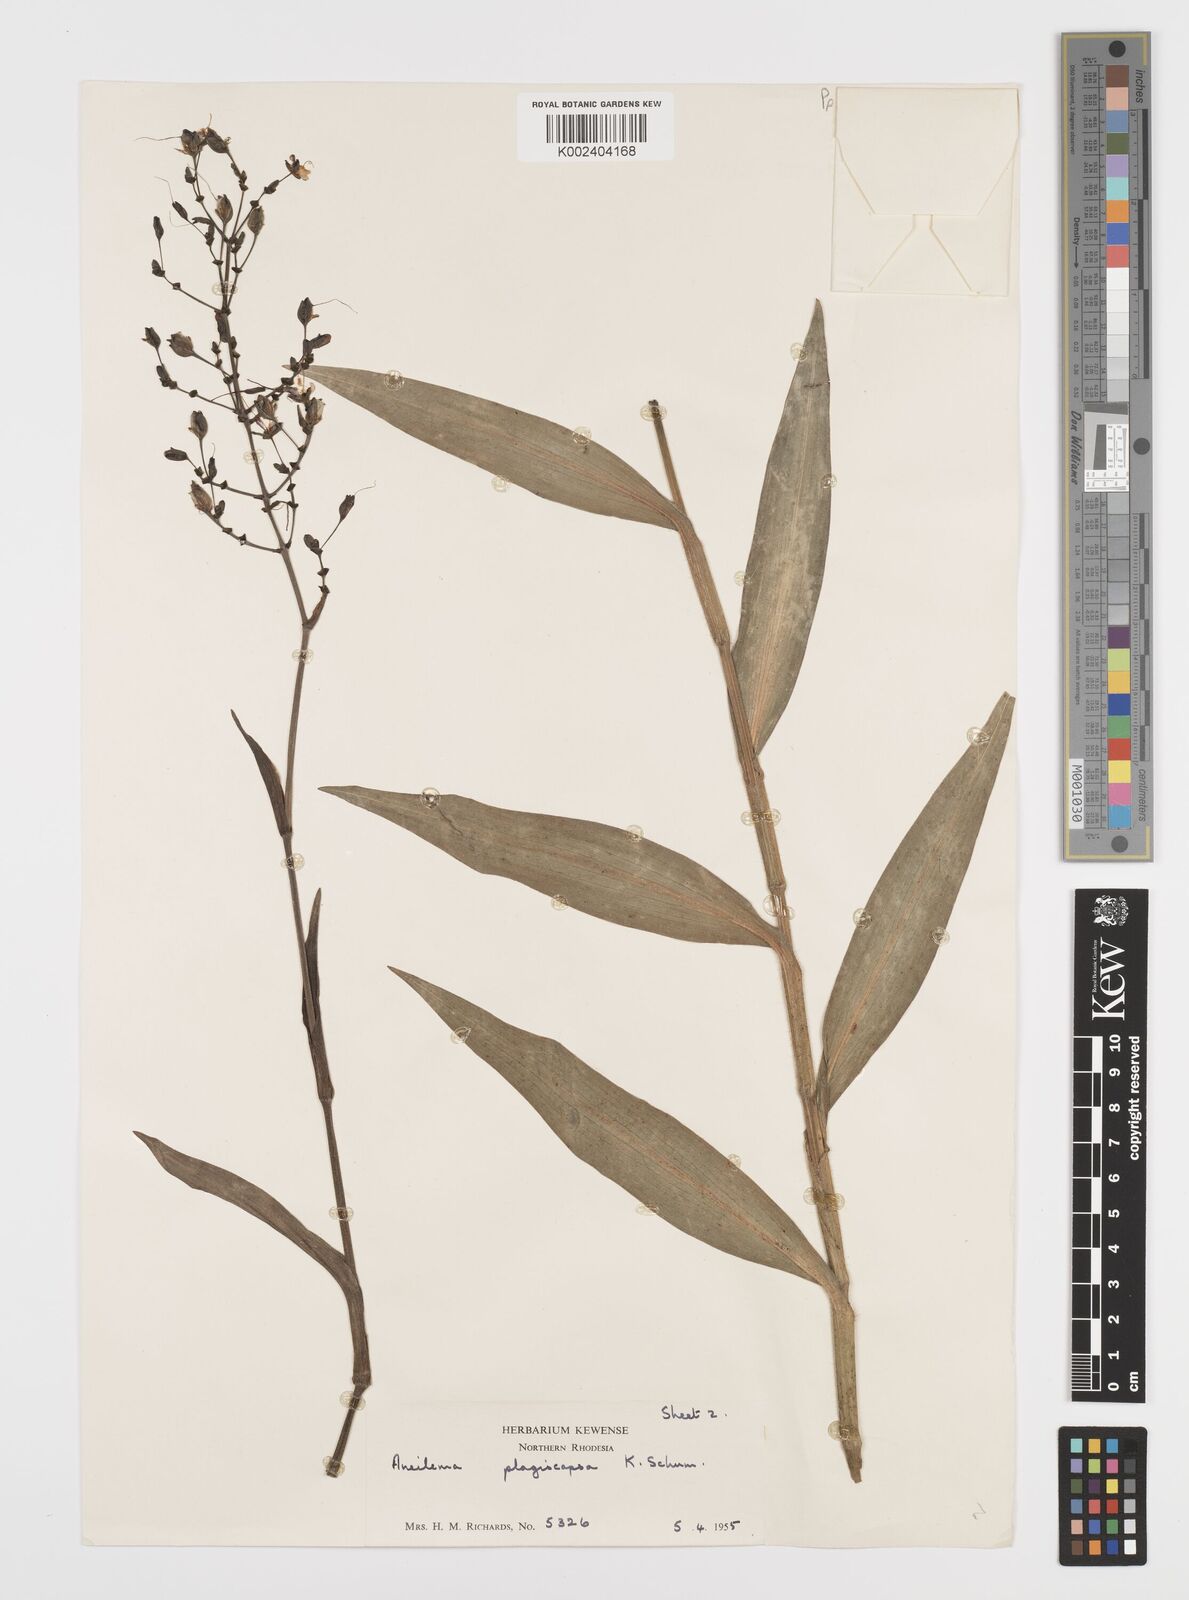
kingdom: Plantae
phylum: Tracheophyta
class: Liliopsida
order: Commelinales
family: Commelinaceae
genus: Aneilema
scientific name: Aneilema plagiocapsa
